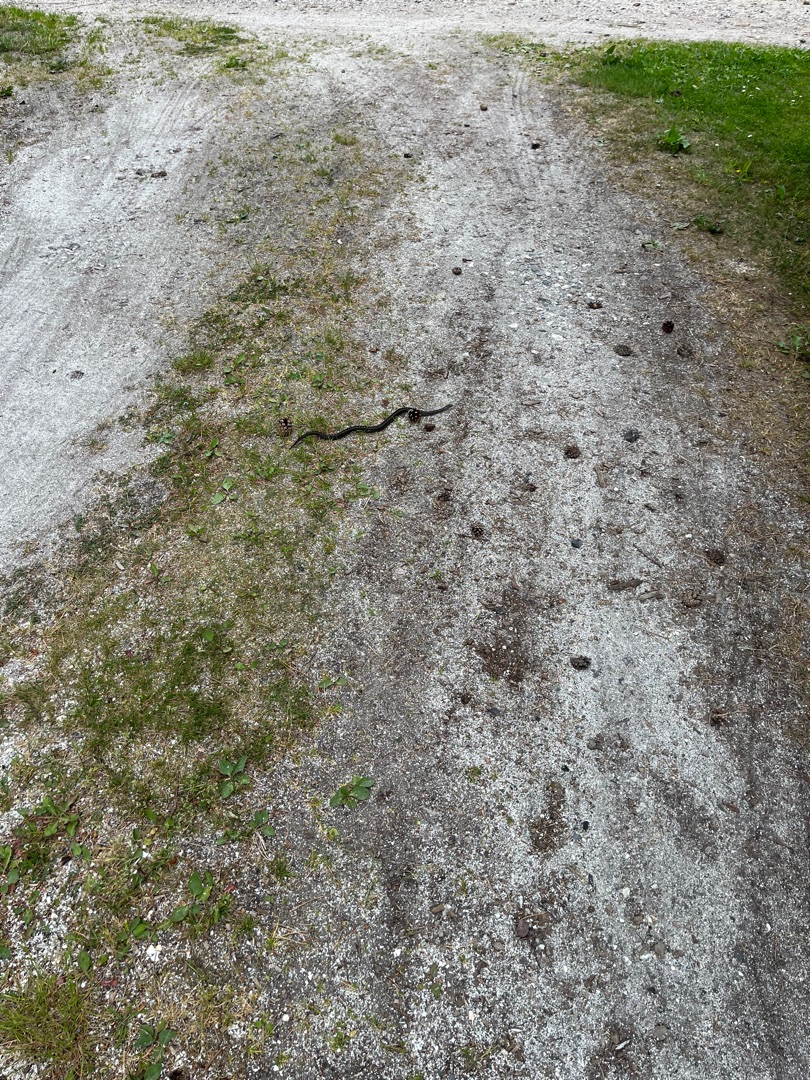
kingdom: Animalia
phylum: Chordata
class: Squamata
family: Viperidae
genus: Vipera
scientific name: Vipera berus
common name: Hugorm
